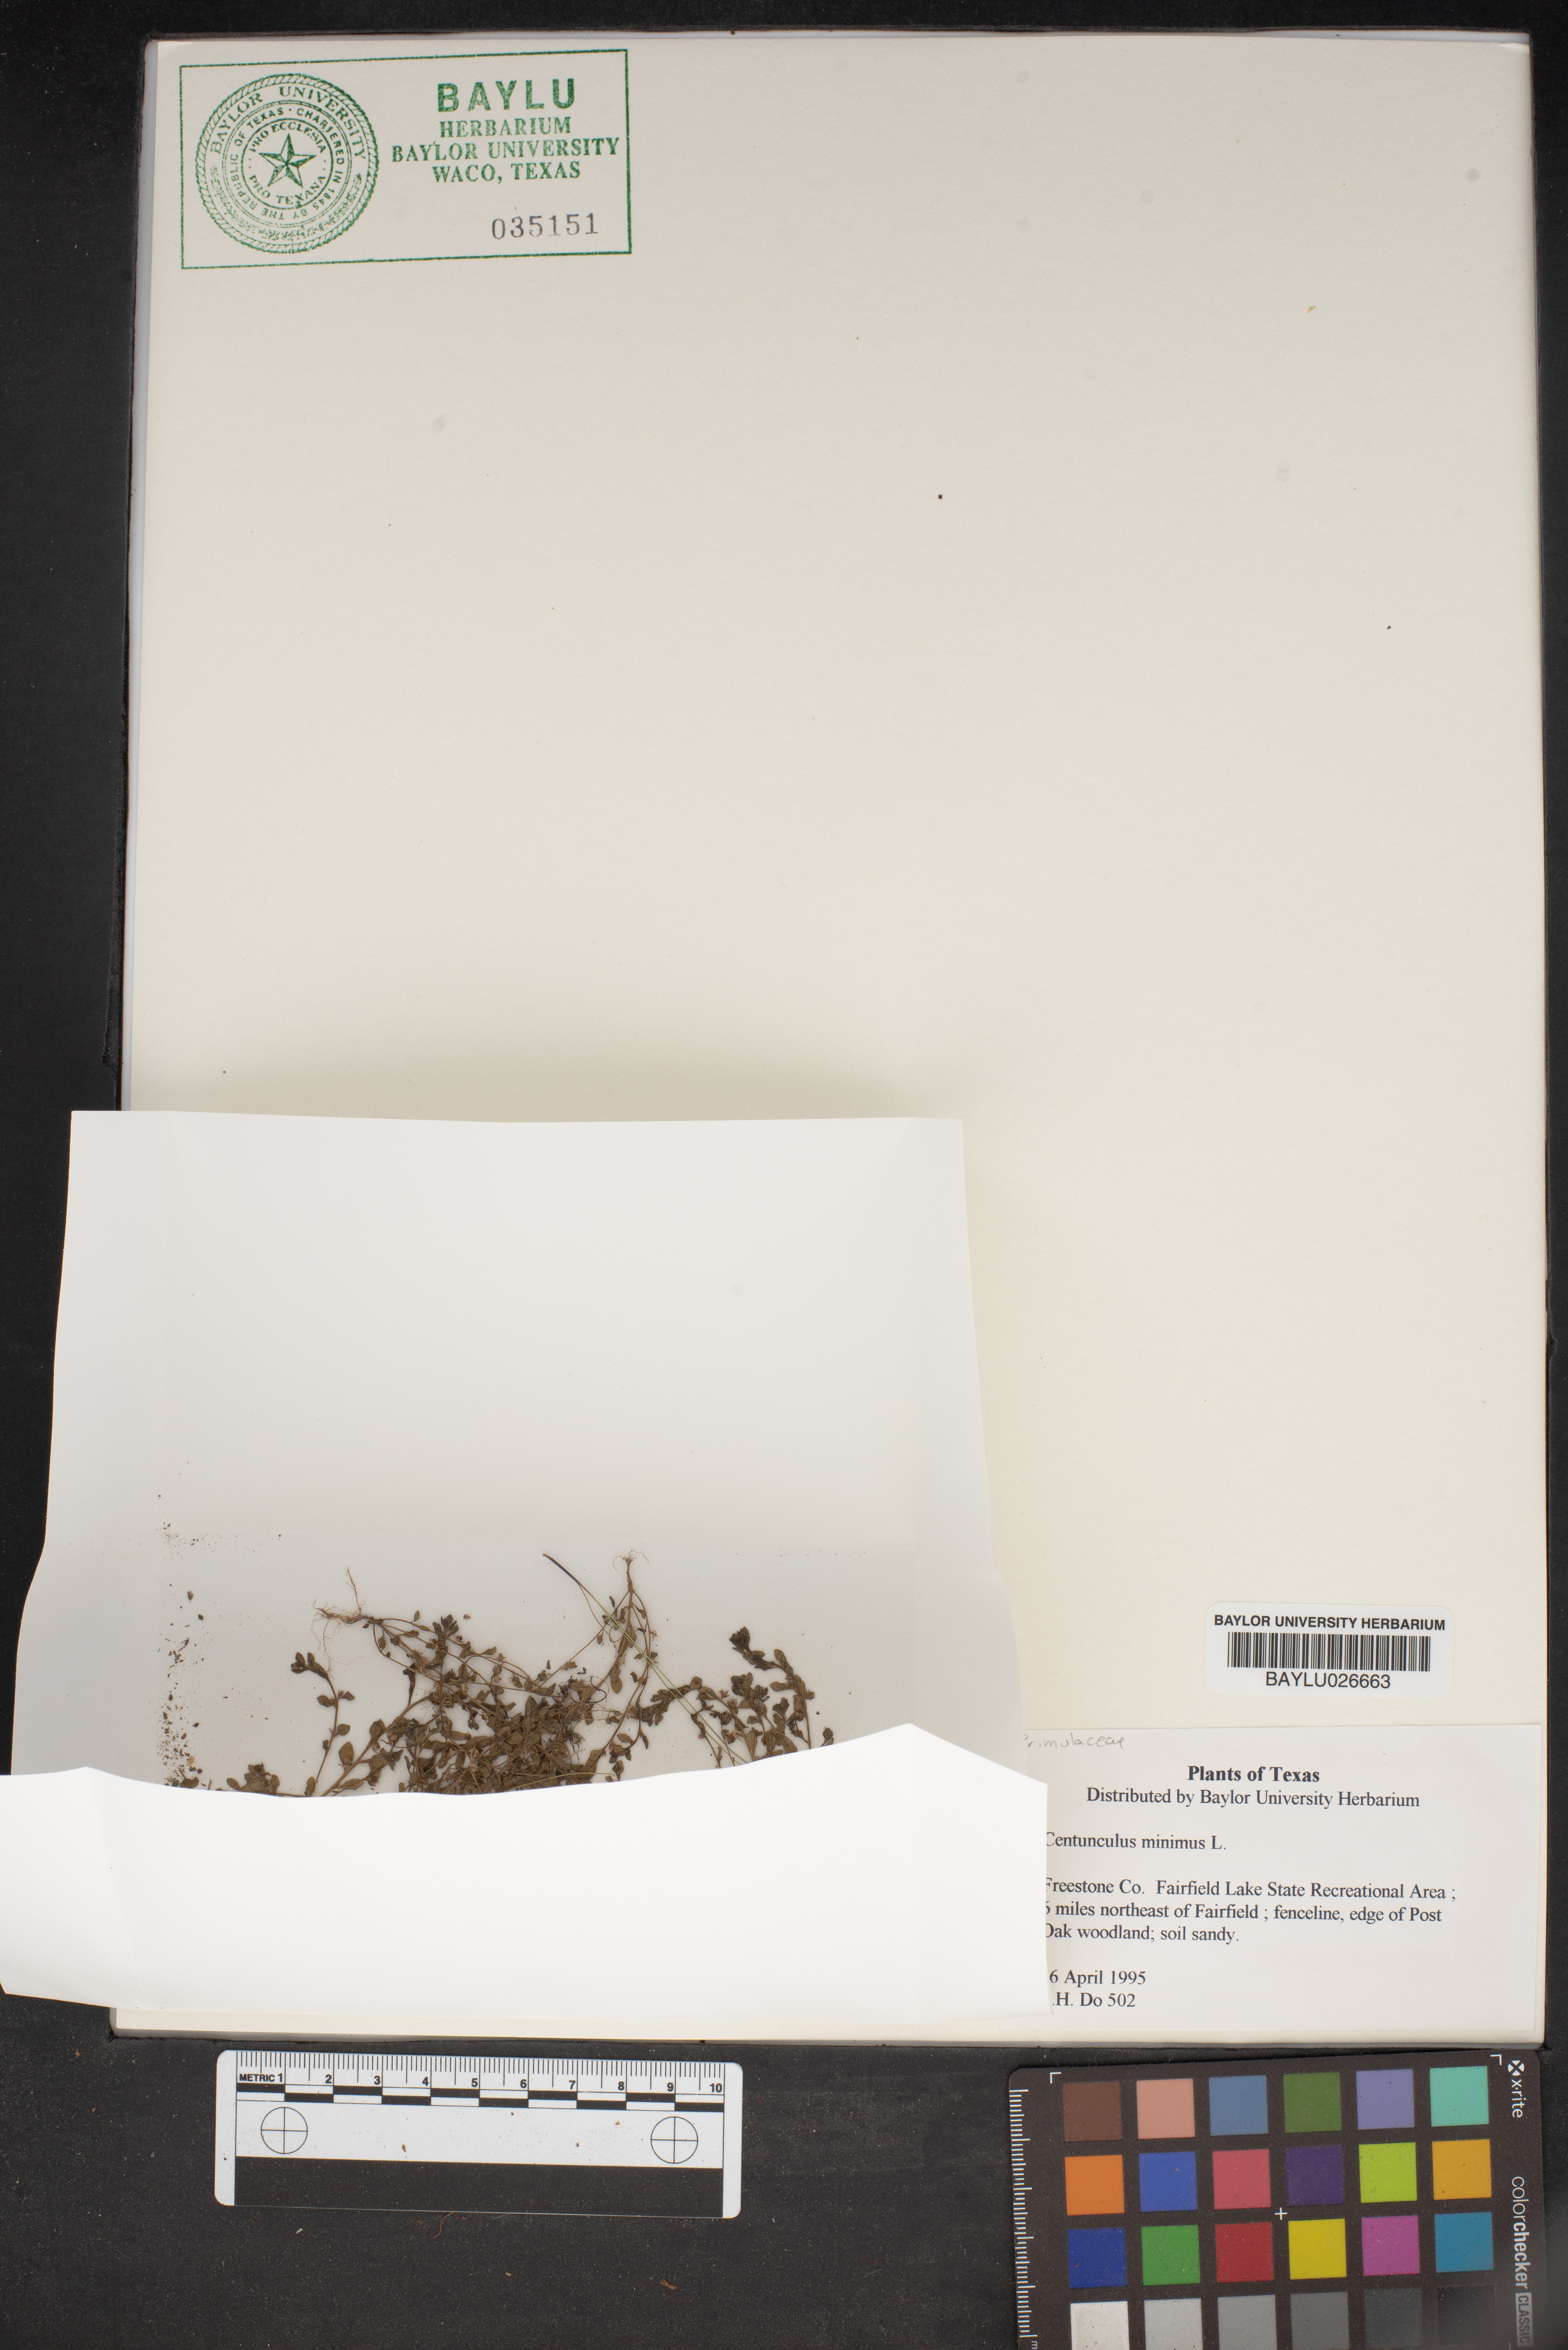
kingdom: Plantae
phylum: Tracheophyta
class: Magnoliopsida
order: Ericales
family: Primulaceae
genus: Lysimachia
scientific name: Lysimachia minima
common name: Chaffweed
